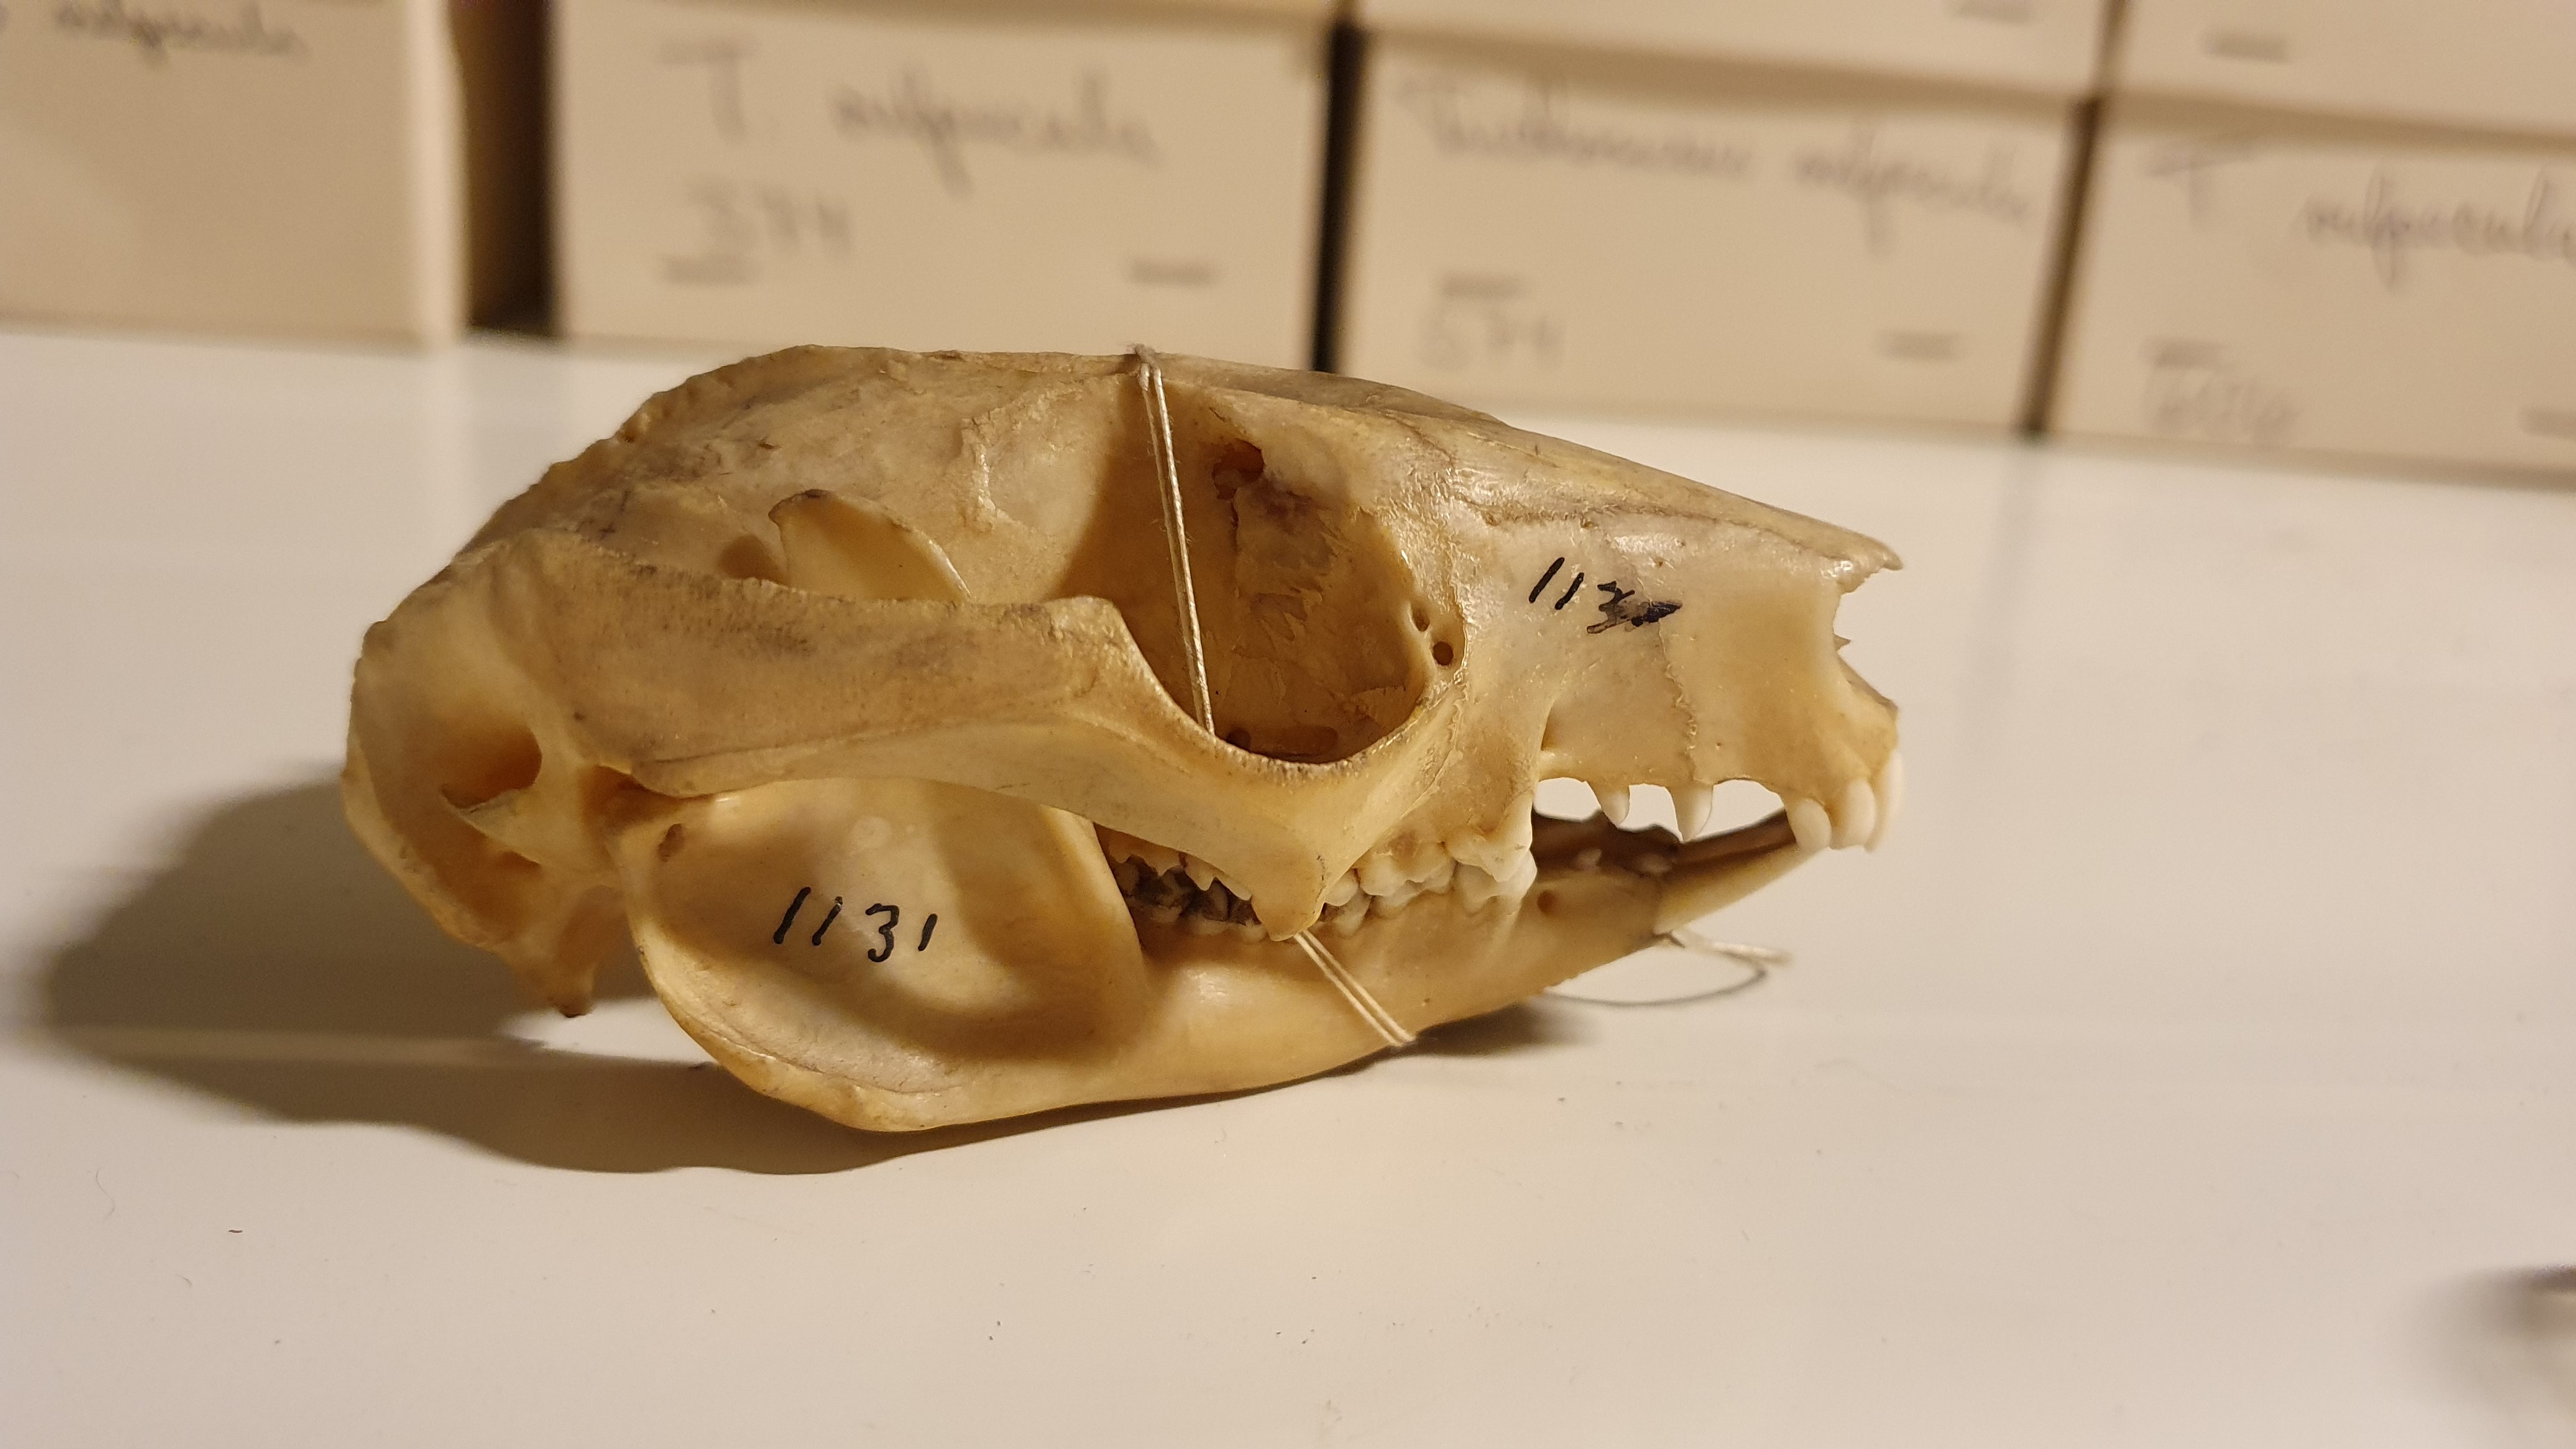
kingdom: Animalia
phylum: Chordata
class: Mammalia
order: Diprotodontia
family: Phalangeridae
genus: Trichosurus
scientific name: Trichosurus vulpecula
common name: Common brushtail
